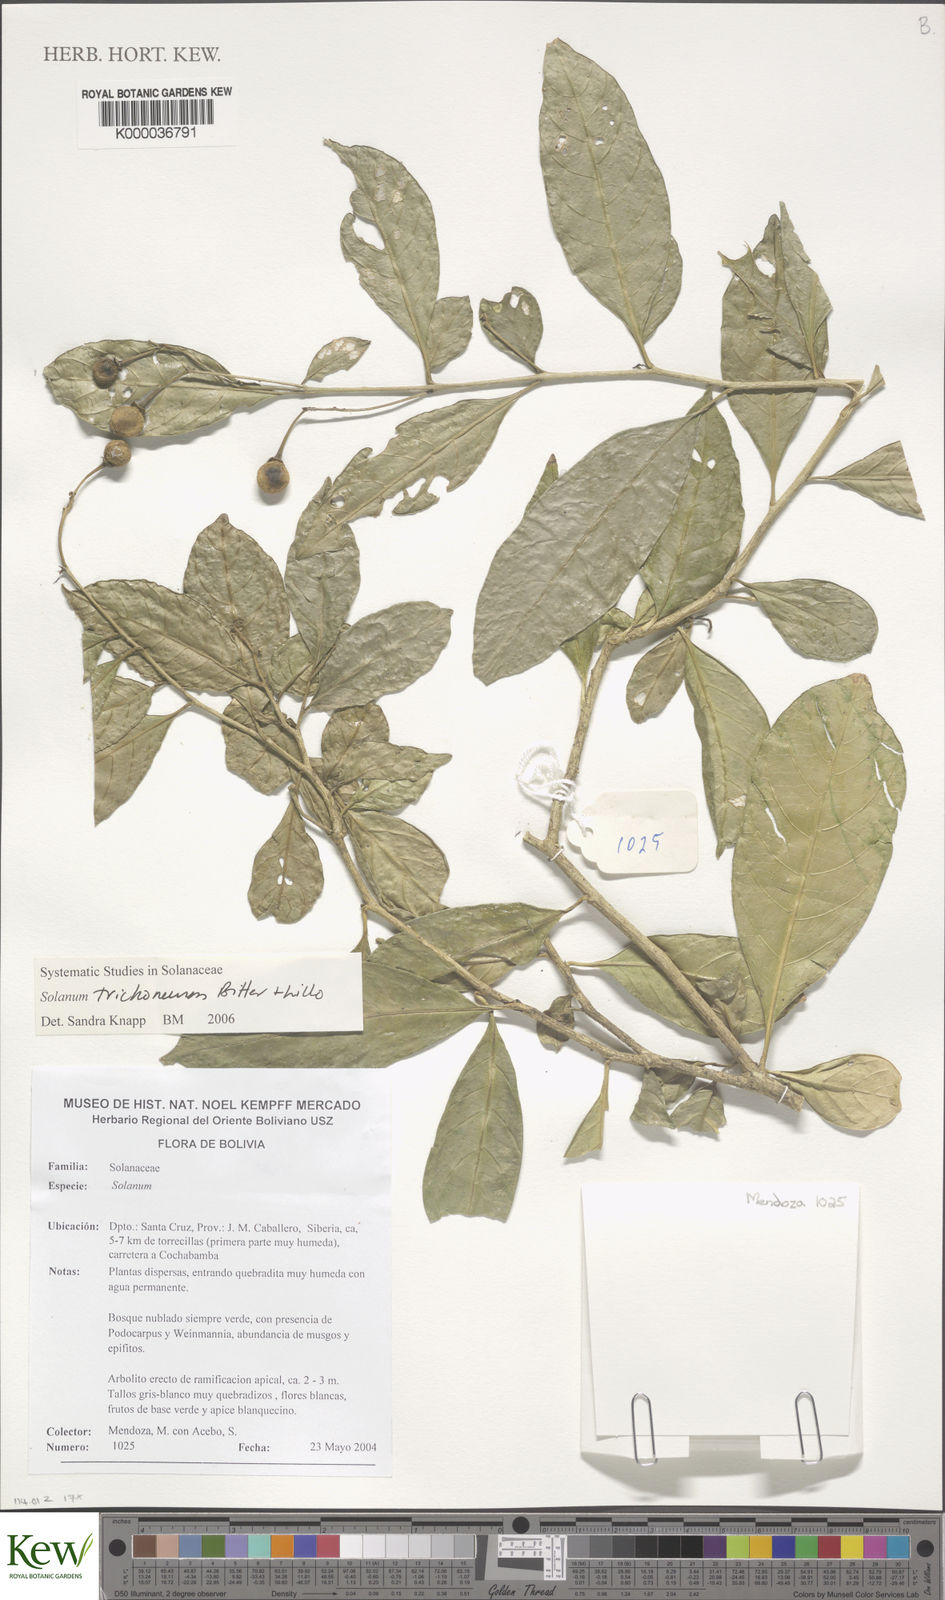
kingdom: Plantae
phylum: Tracheophyta
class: Magnoliopsida
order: Solanales
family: Solanaceae
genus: Solanum
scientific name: Solanum oblongum
